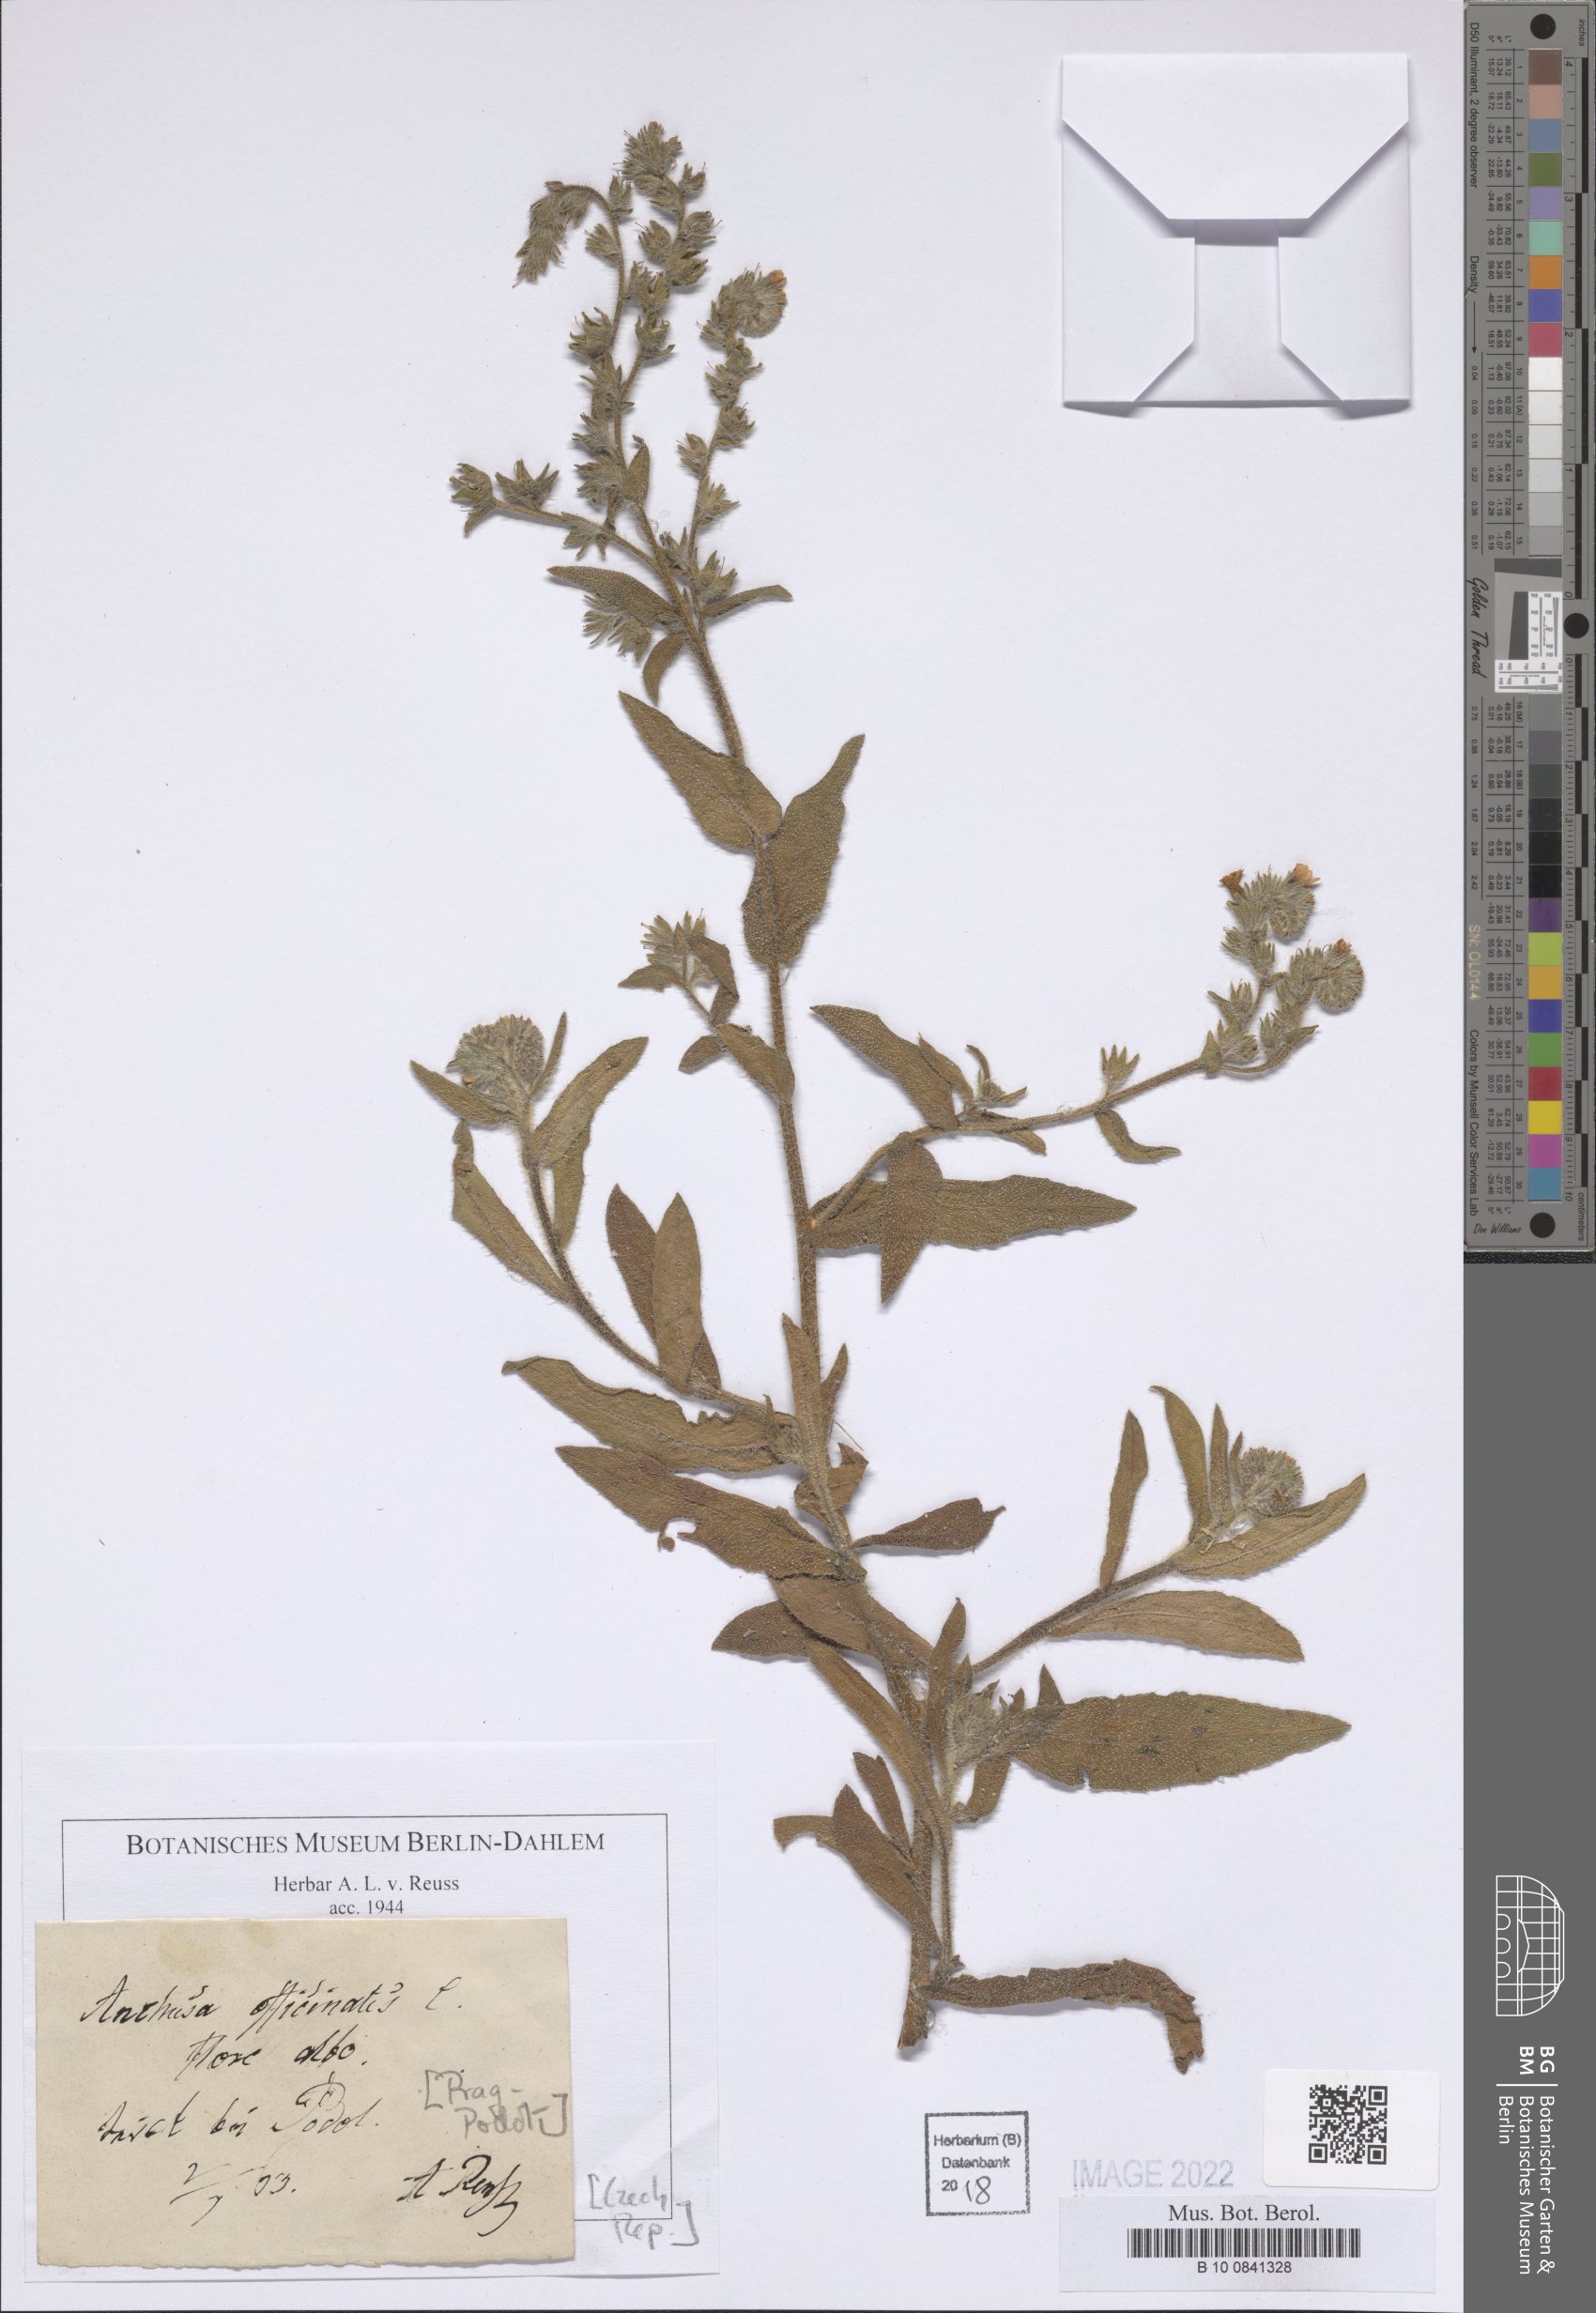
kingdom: Plantae
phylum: Tracheophyta
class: Magnoliopsida
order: Boraginales
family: Boraginaceae
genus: Anchusa
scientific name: Anchusa officinalis
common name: Alkanet
